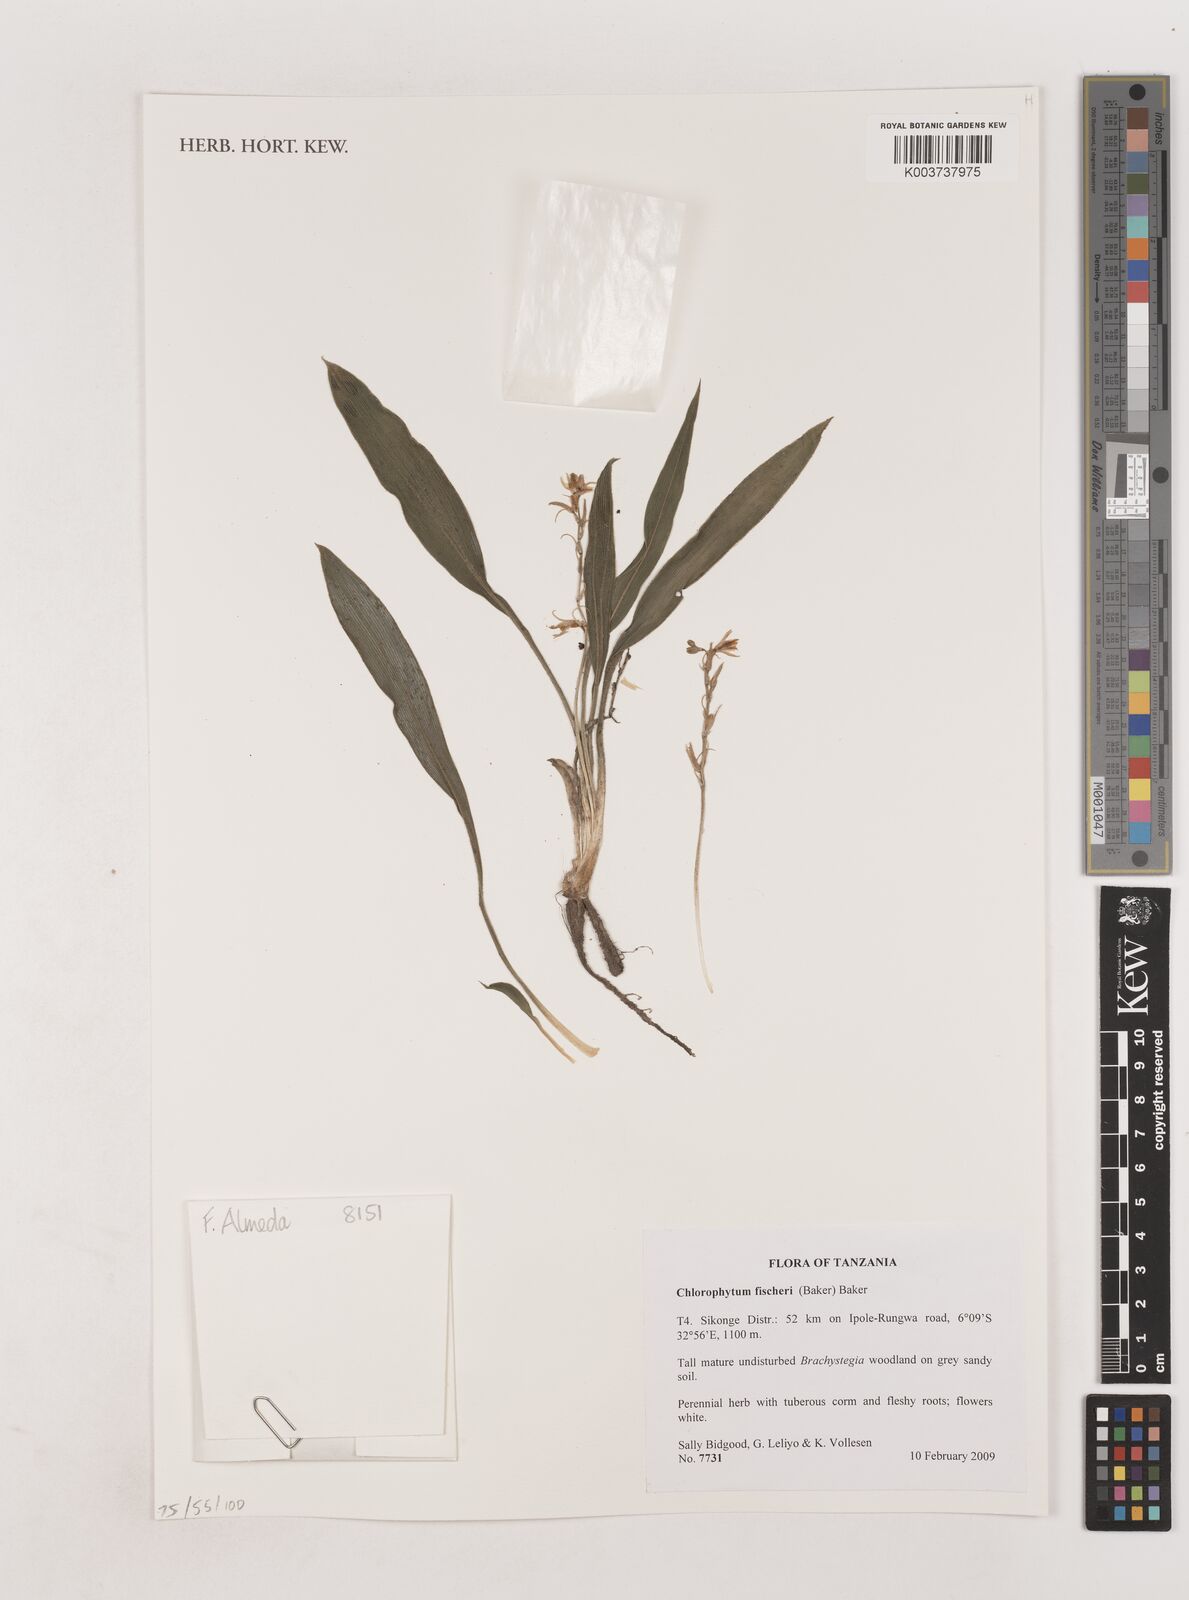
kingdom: Plantae
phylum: Tracheophyta
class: Liliopsida
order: Asparagales
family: Asparagaceae
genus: Chlorophytum
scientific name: Chlorophytum fischeri
